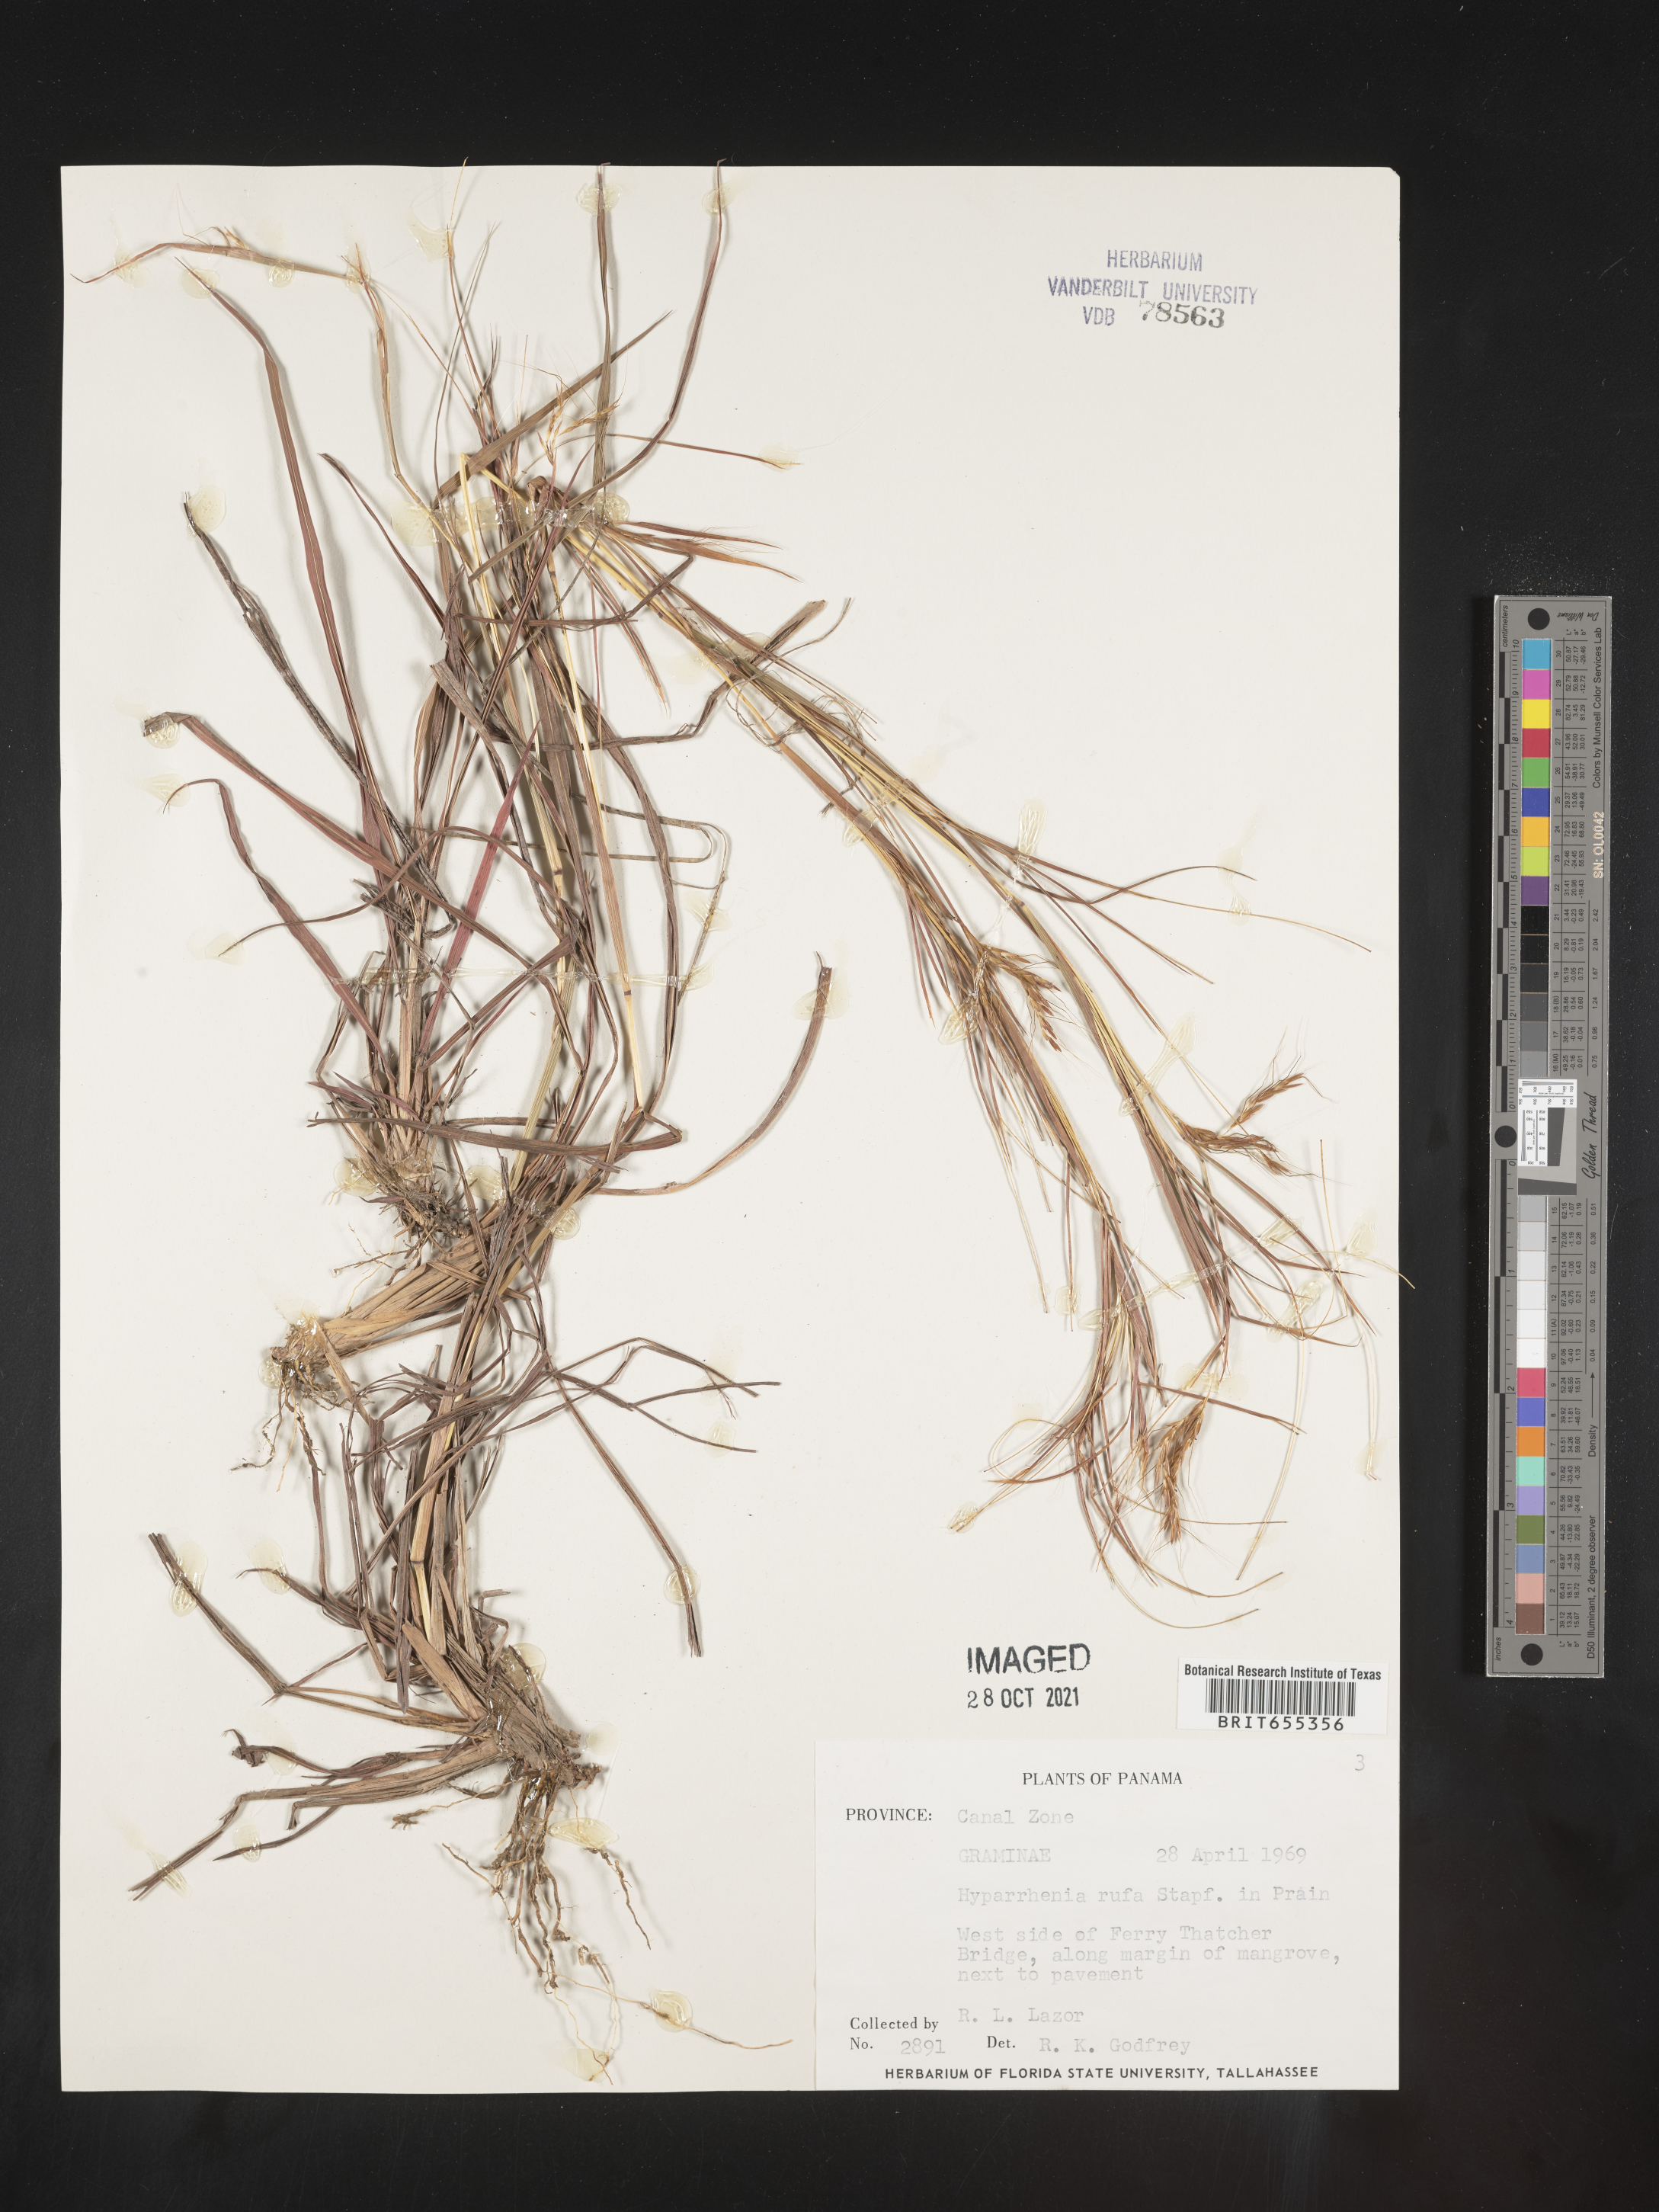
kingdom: Plantae
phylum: Tracheophyta
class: Liliopsida
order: Poales
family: Poaceae
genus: Hyparrhenia
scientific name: Hyparrhenia
